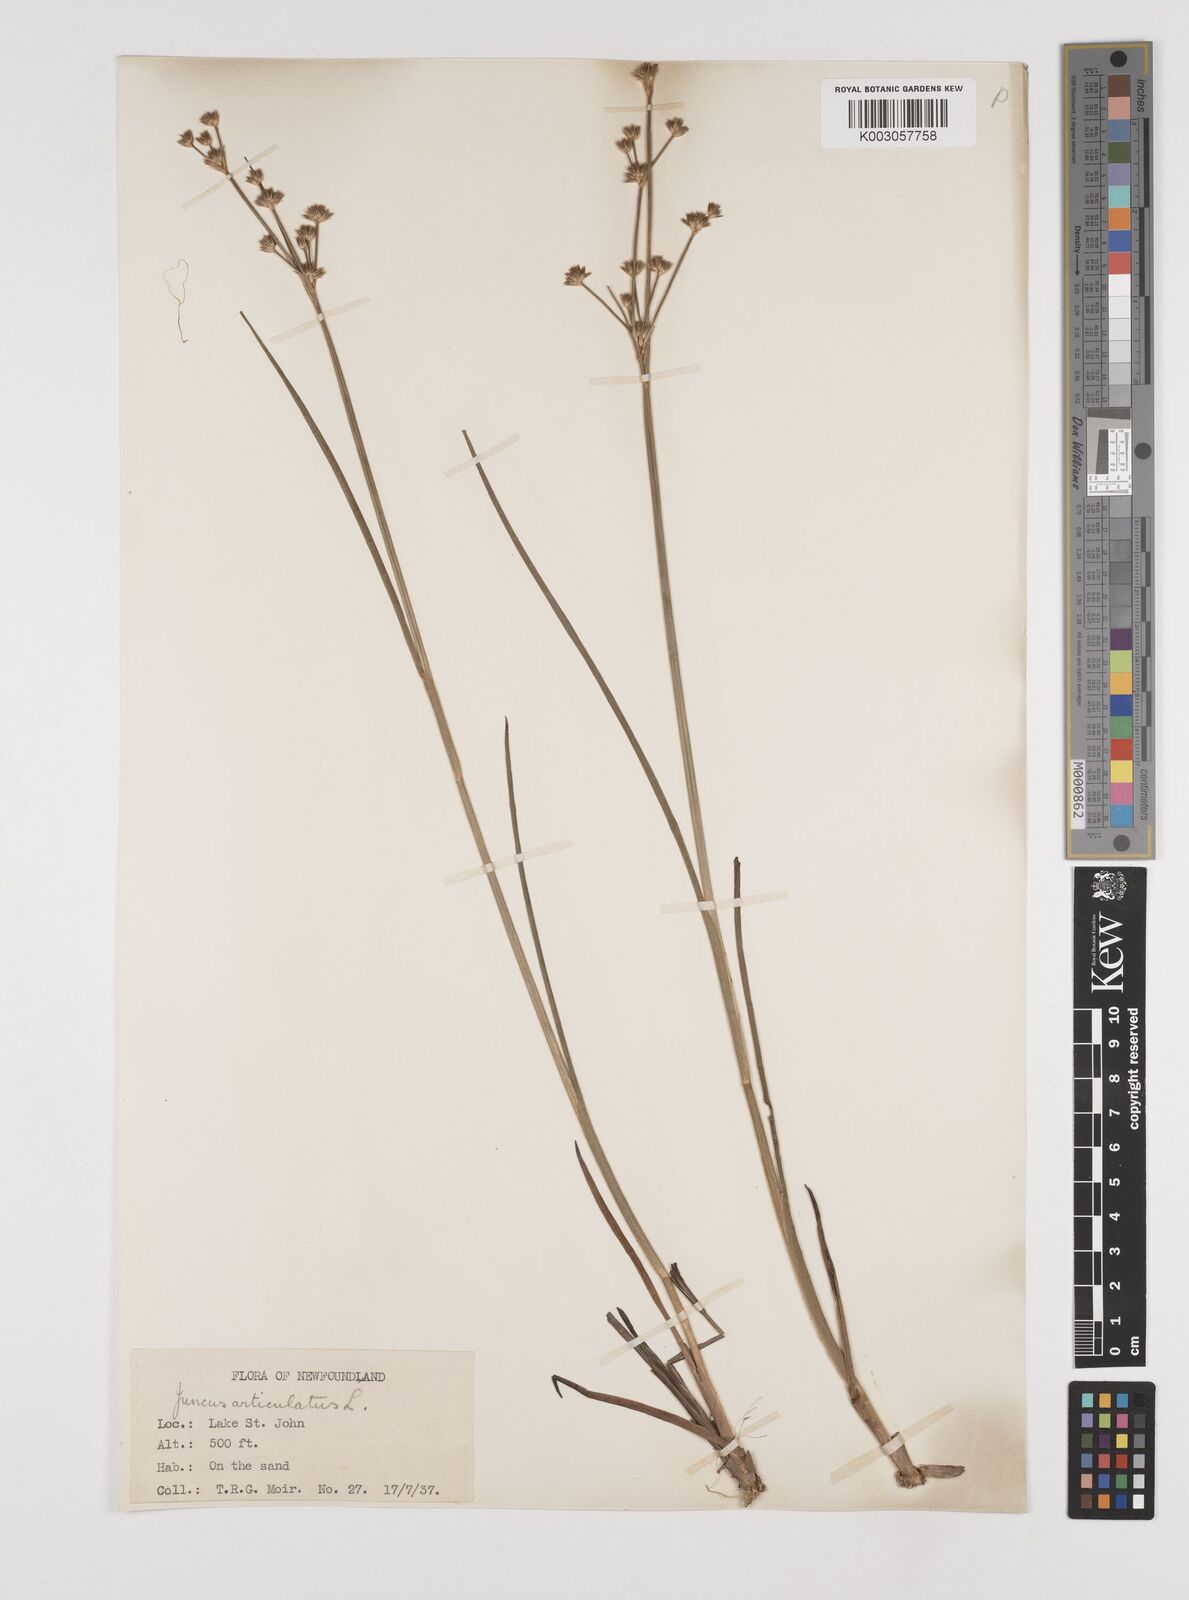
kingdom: Plantae
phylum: Tracheophyta
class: Liliopsida
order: Poales
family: Juncaceae
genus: Juncus
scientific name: Juncus articulatus
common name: Jointed rush
